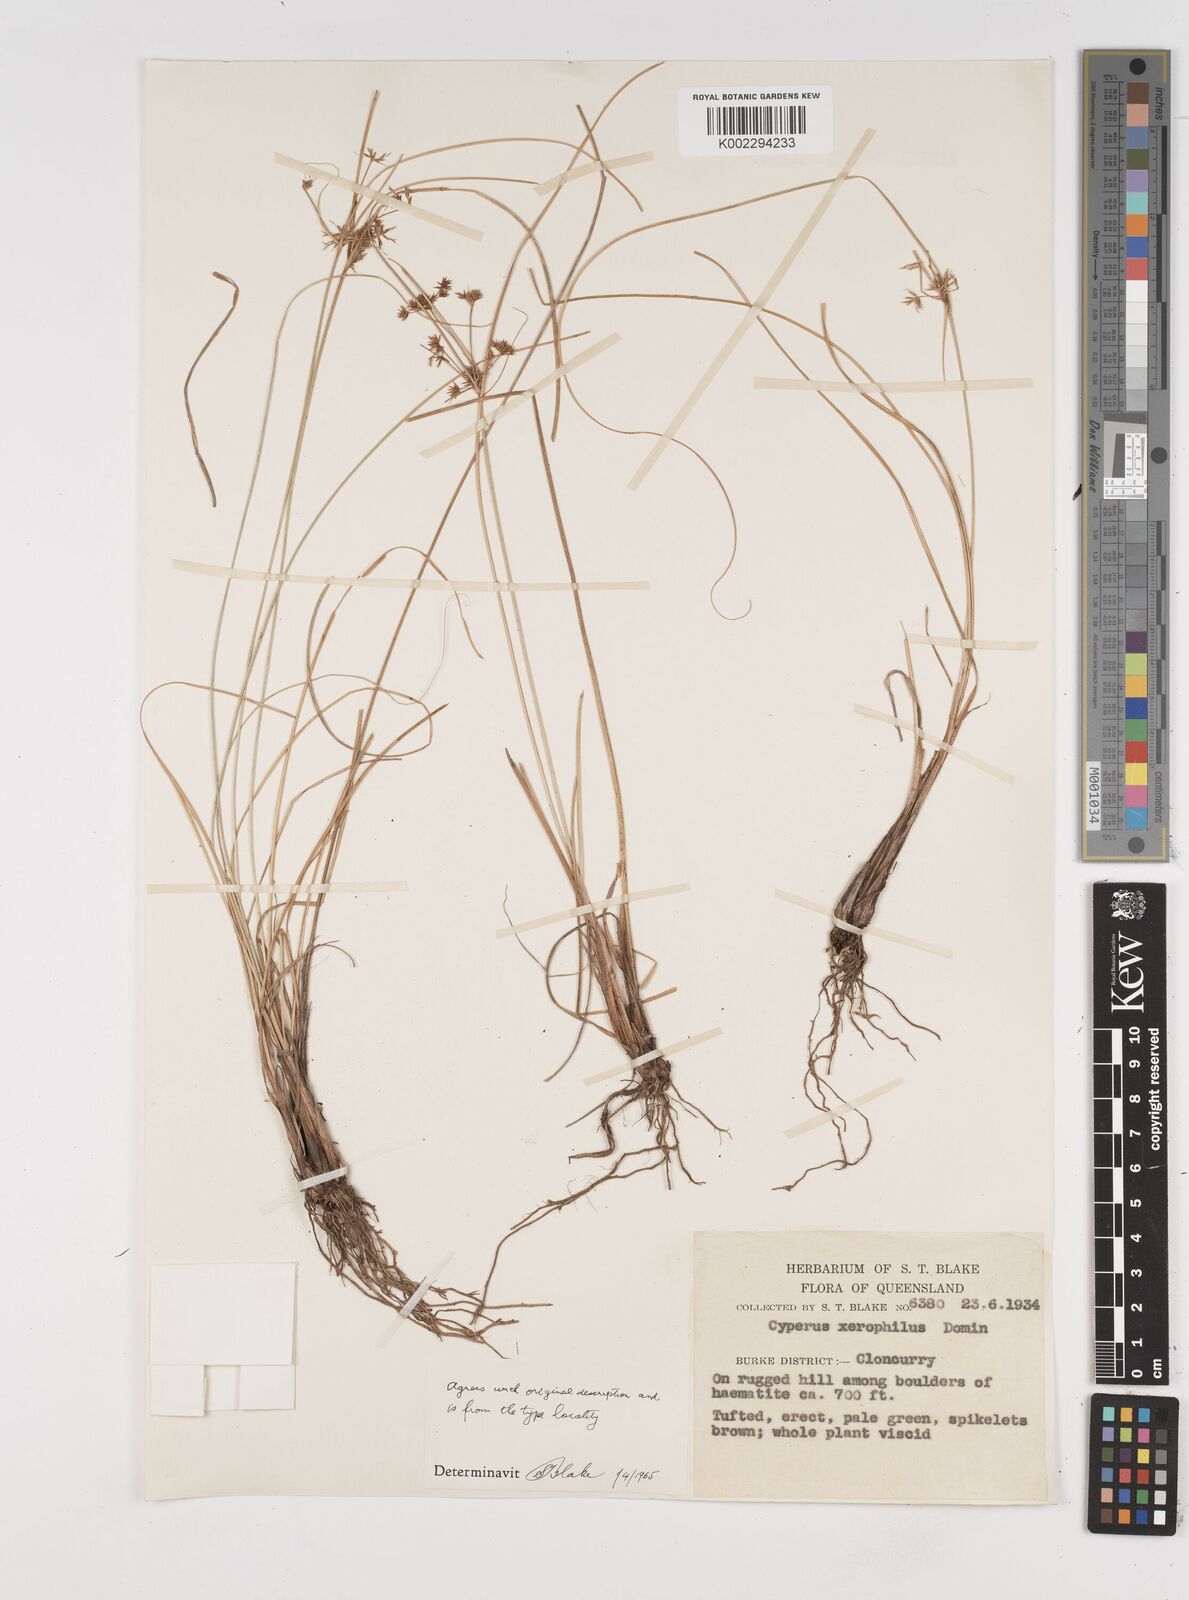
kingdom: Plantae
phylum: Tracheophyta
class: Liliopsida
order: Poales
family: Cyperaceae
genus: Cyperus
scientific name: Cyperus cunninghamii
